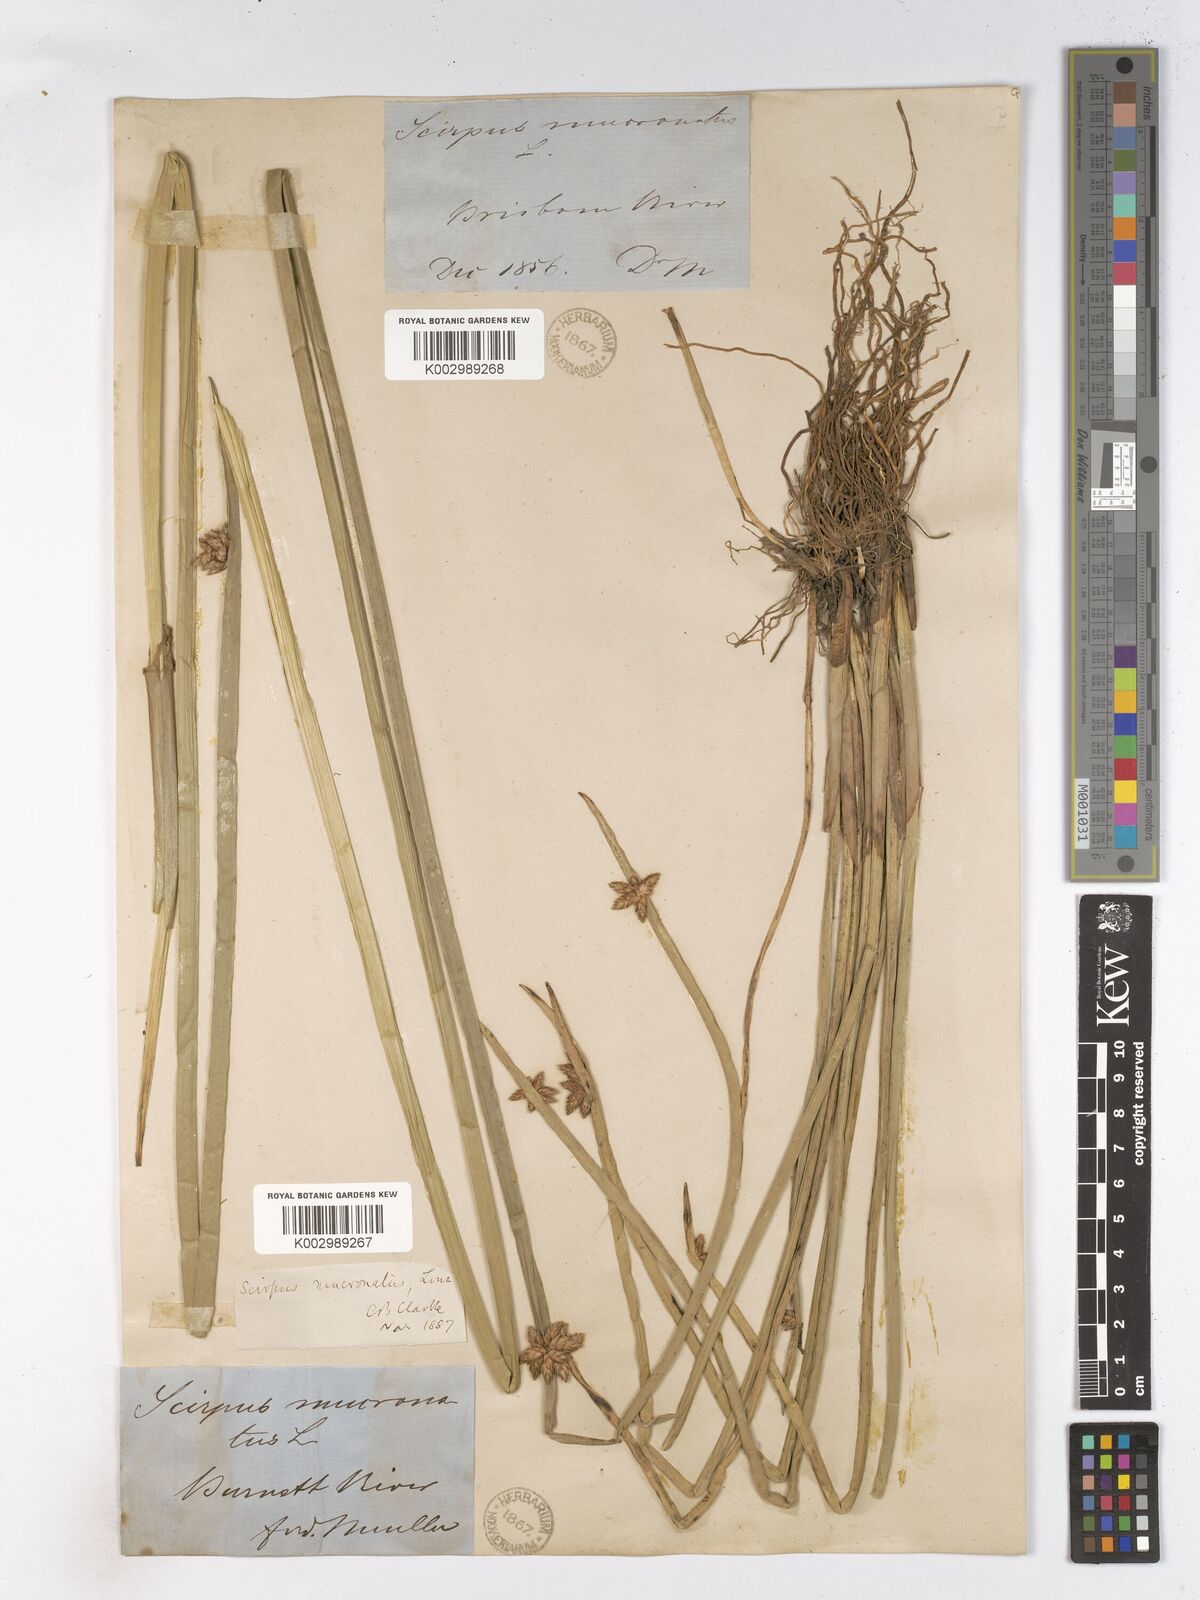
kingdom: Plantae
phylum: Tracheophyta
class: Liliopsida
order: Poales
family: Cyperaceae
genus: Schoenoplectiella
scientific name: Schoenoplectiella mucronata
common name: Bog bulrush
